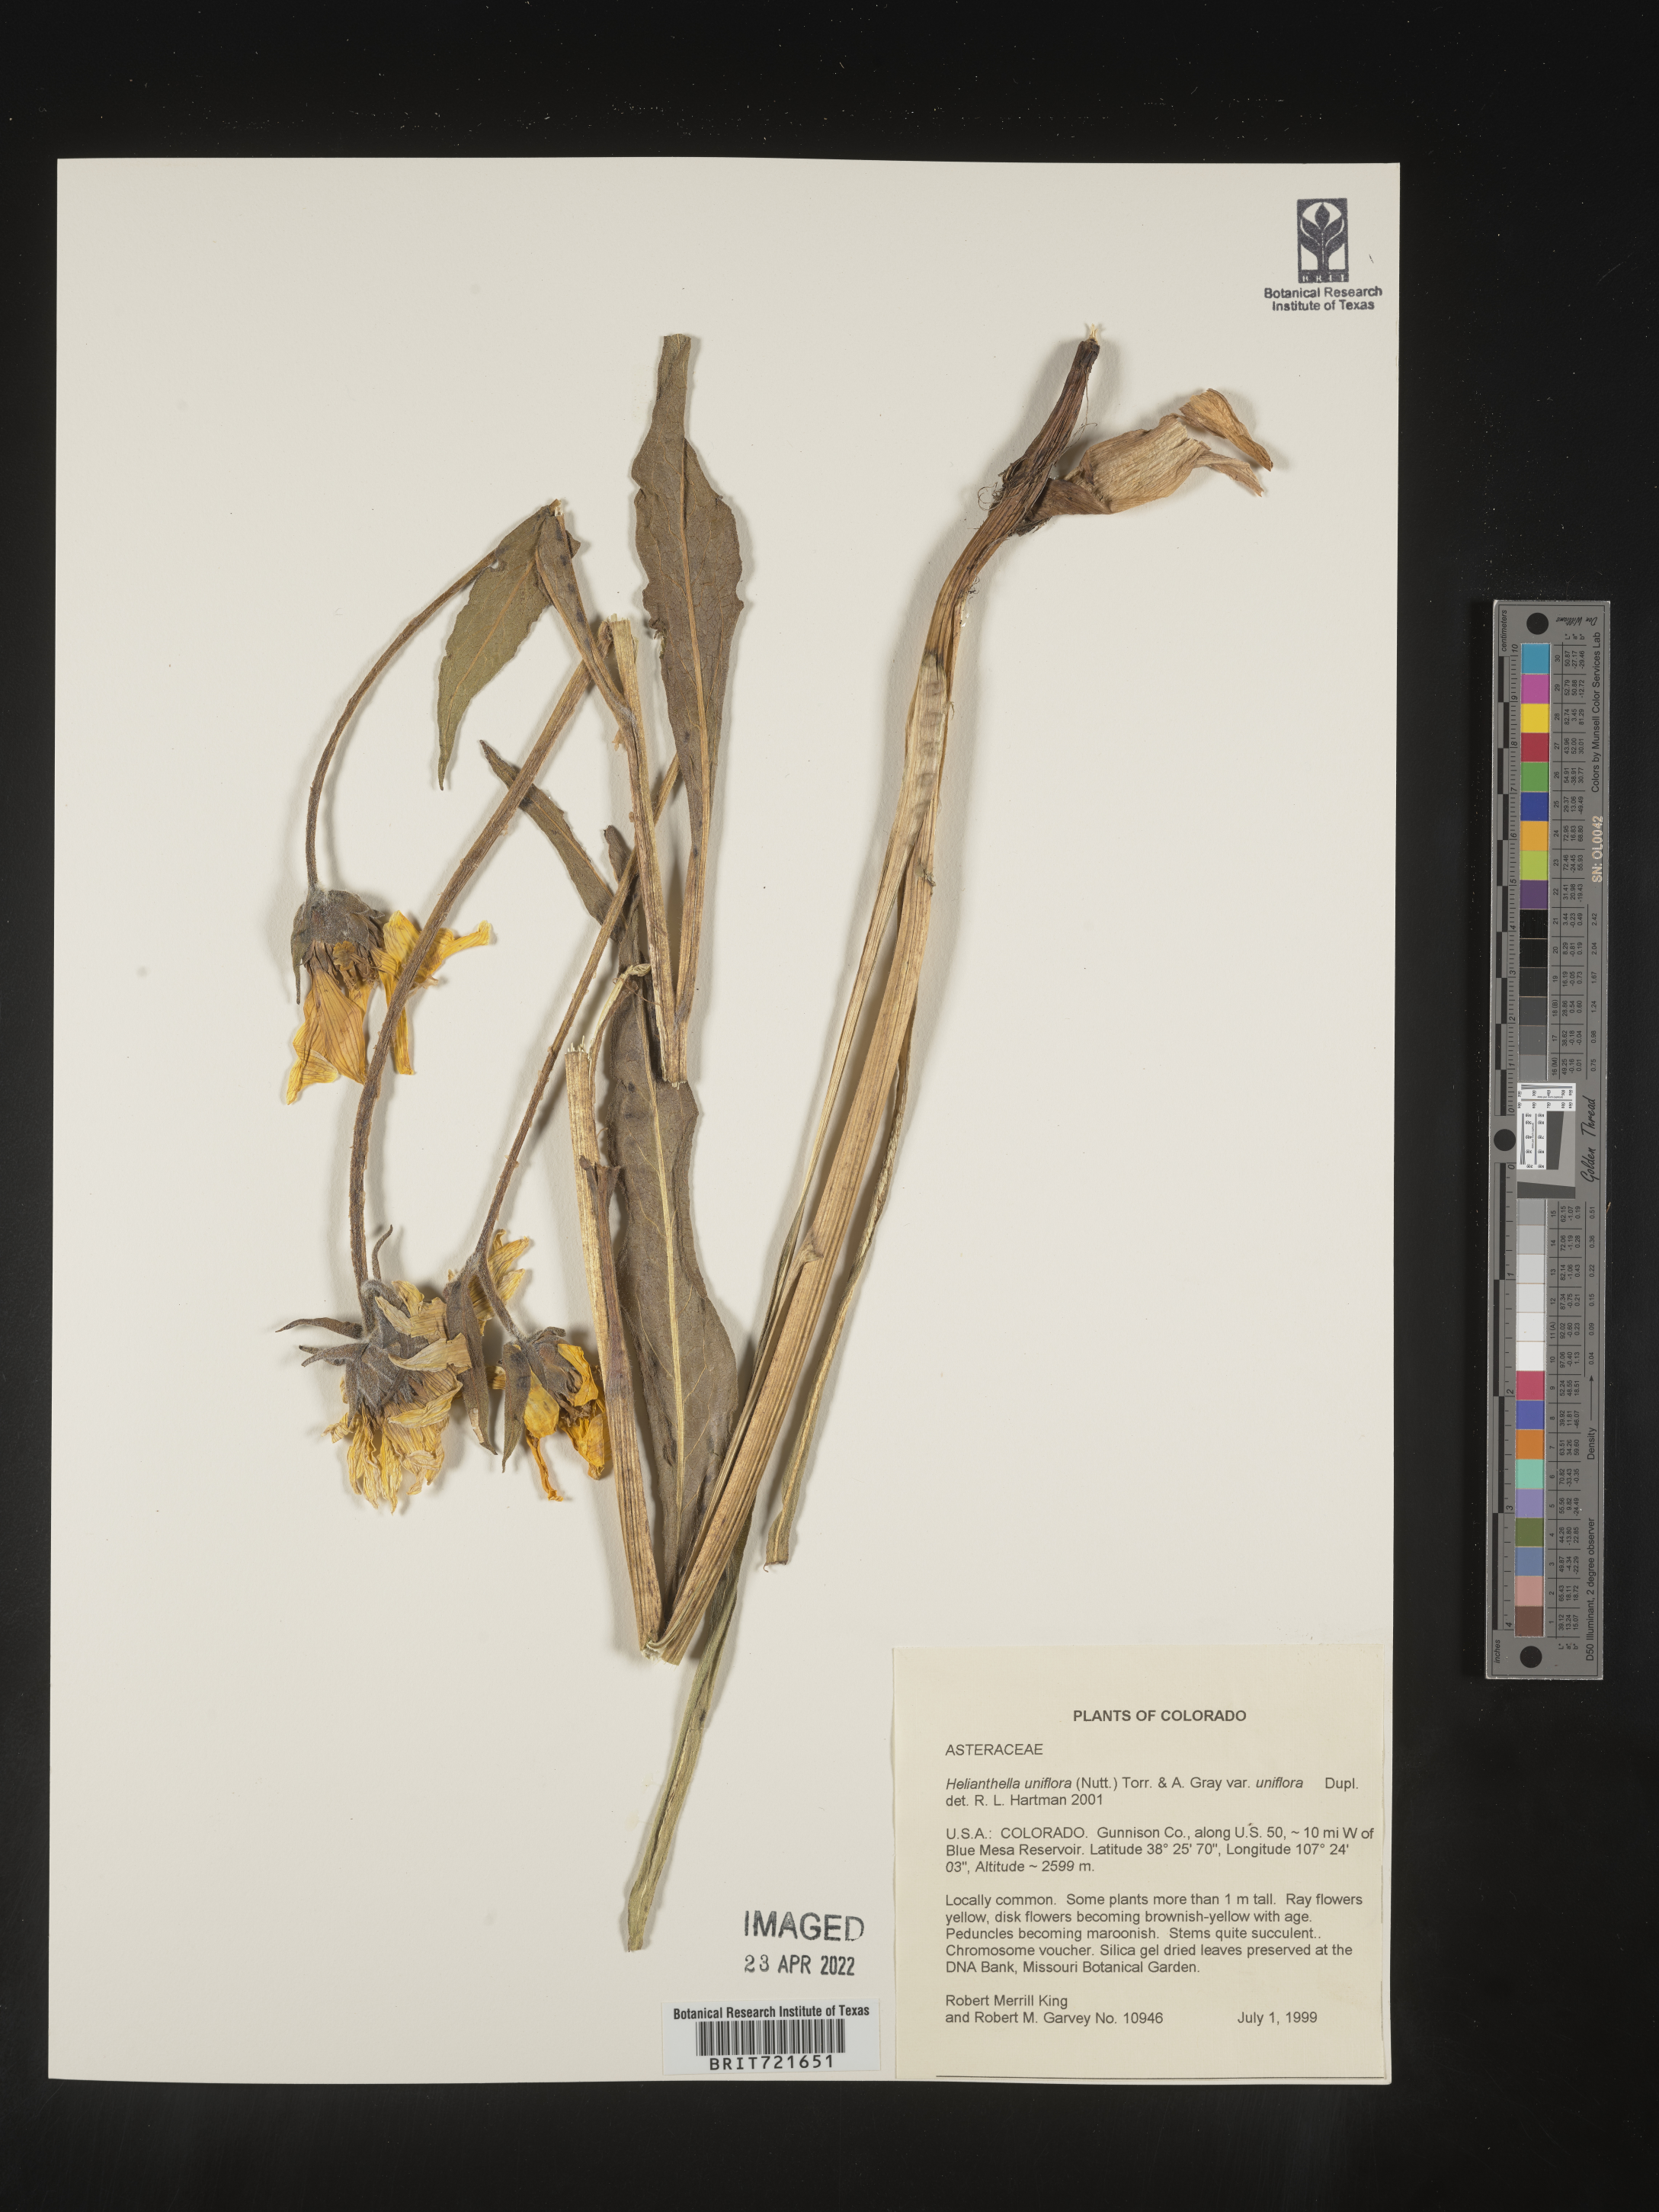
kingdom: Plantae
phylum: Tracheophyta
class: Magnoliopsida
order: Asterales
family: Asteraceae
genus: Helianthella
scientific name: Helianthella uniflora
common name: Rocky mountain dwarf sunflower
